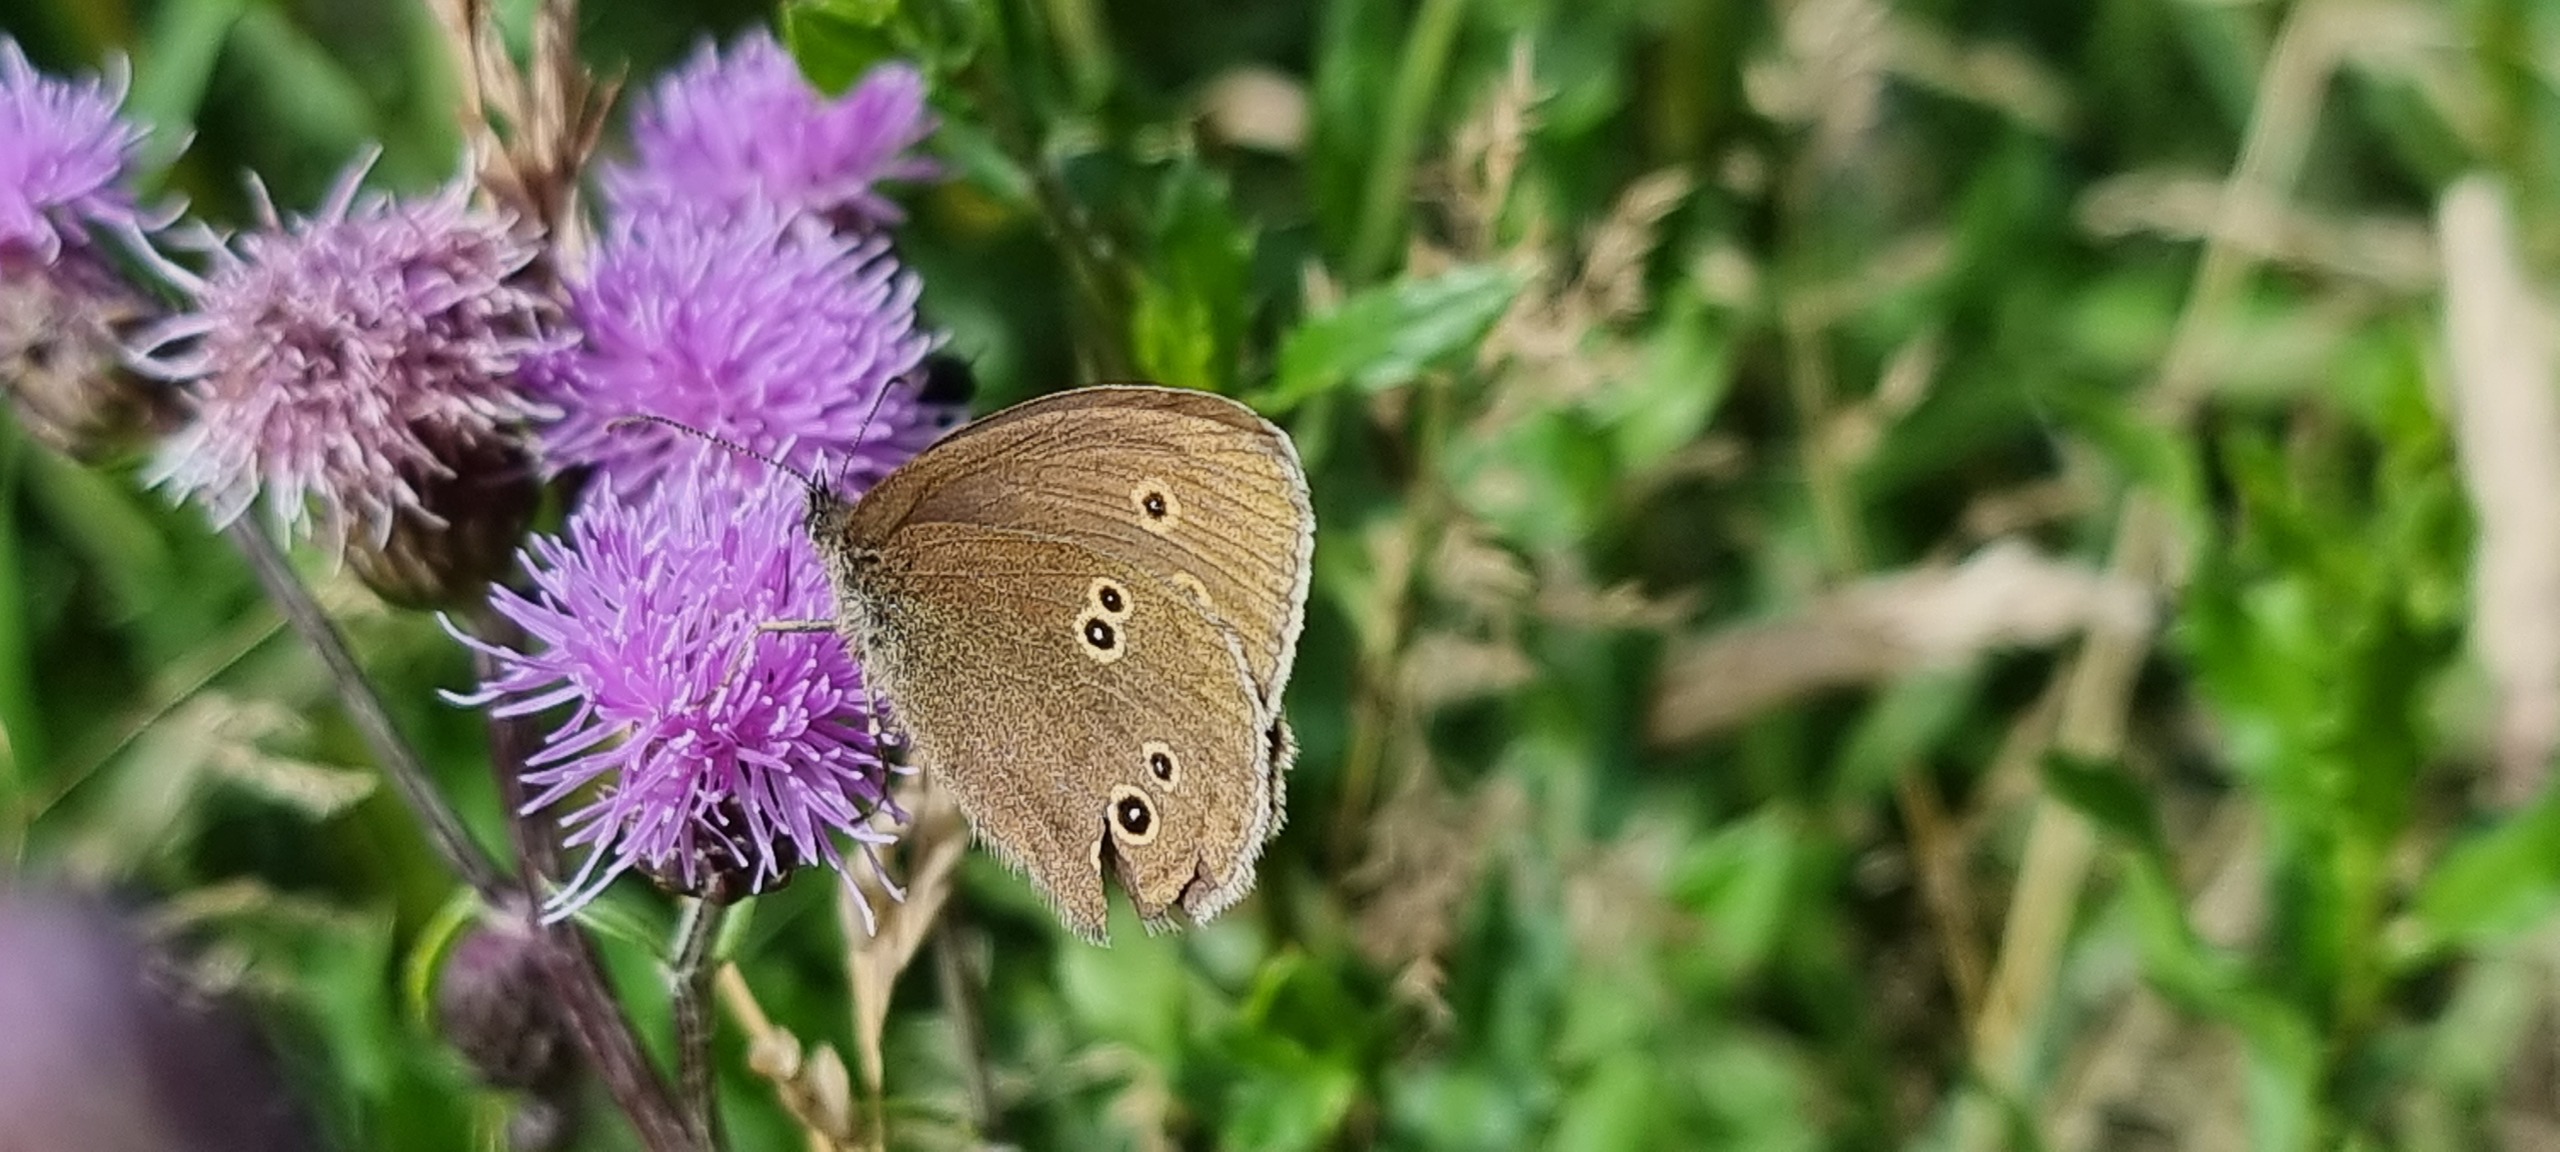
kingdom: Animalia
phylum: Arthropoda
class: Insecta
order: Lepidoptera
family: Nymphalidae
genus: Aphantopus
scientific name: Aphantopus hyperantus
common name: Engrandøje
